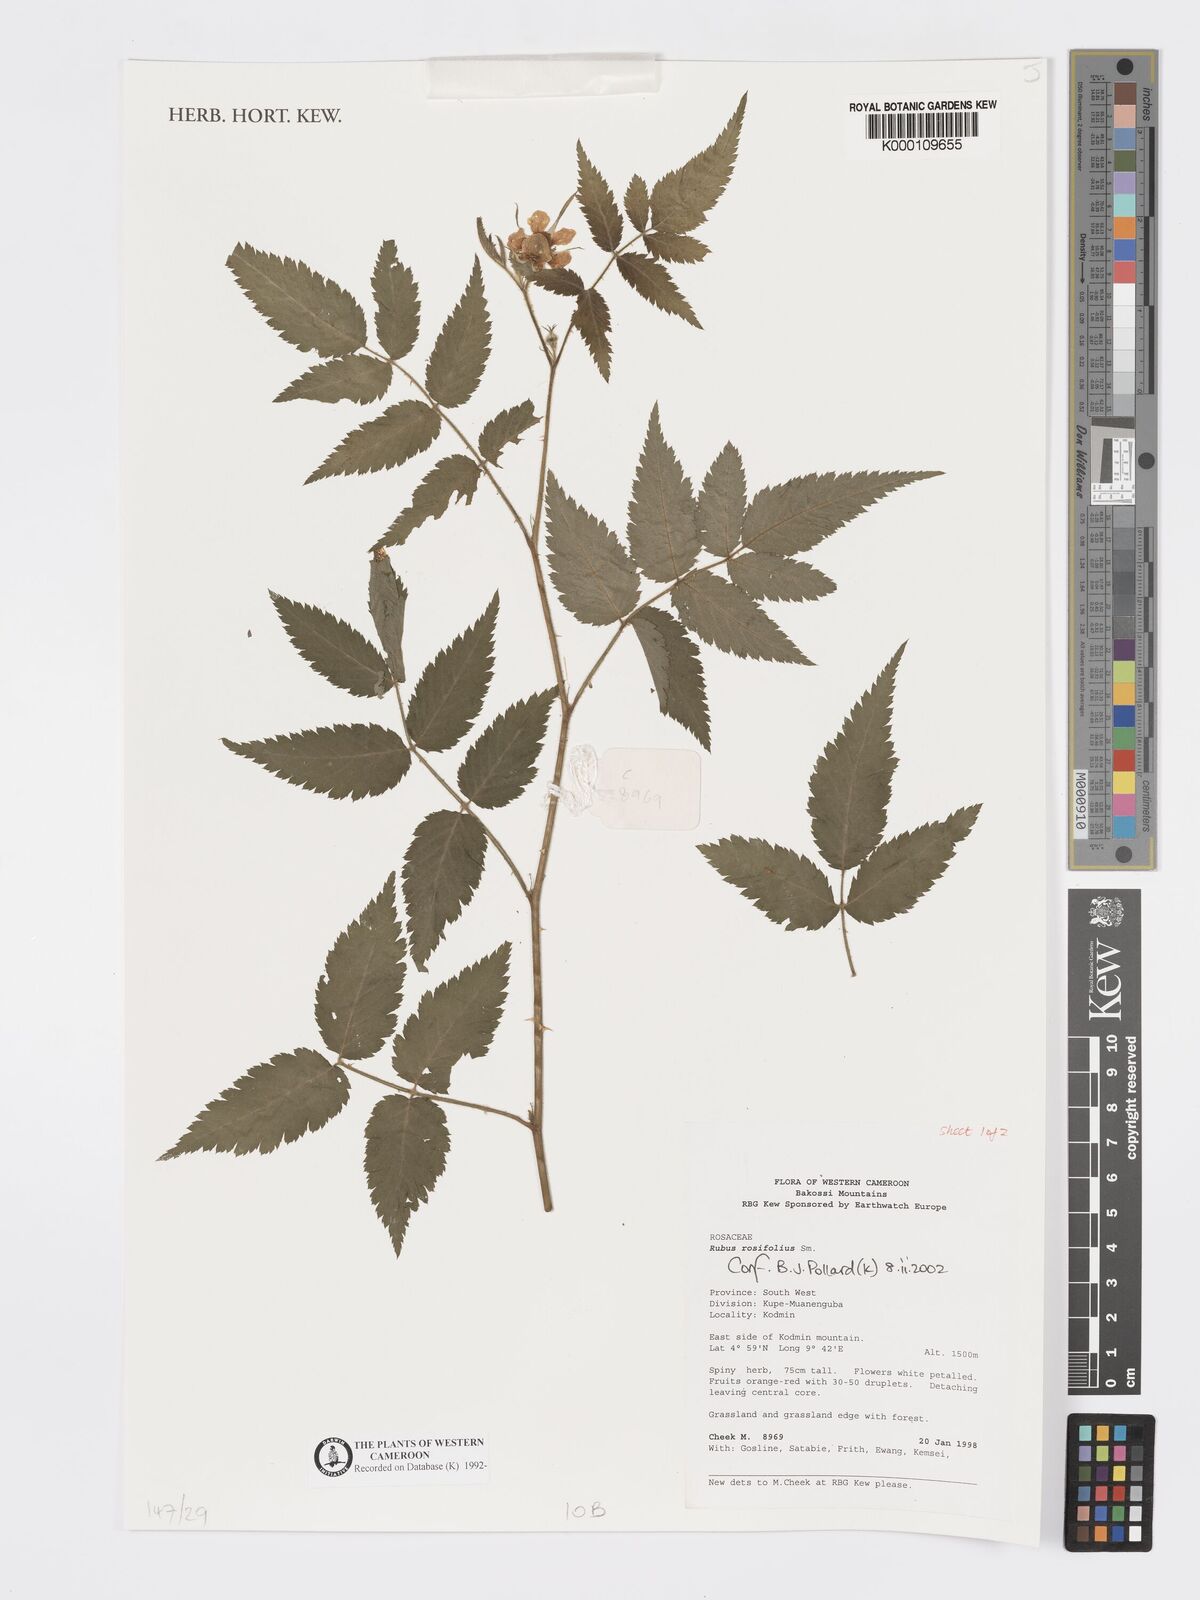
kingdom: Plantae
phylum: Tracheophyta
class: Magnoliopsida
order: Rosales
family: Rosaceae
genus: Rubus
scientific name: Rubus rosifolius
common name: Roseleaf raspberry
